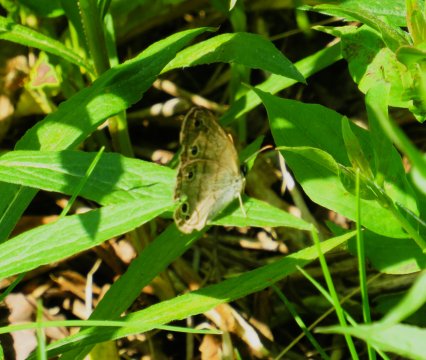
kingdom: Animalia
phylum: Arthropoda
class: Insecta
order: Lepidoptera
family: Nymphalidae
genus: Euptychia
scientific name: Euptychia cymela
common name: Little Wood Satyr
